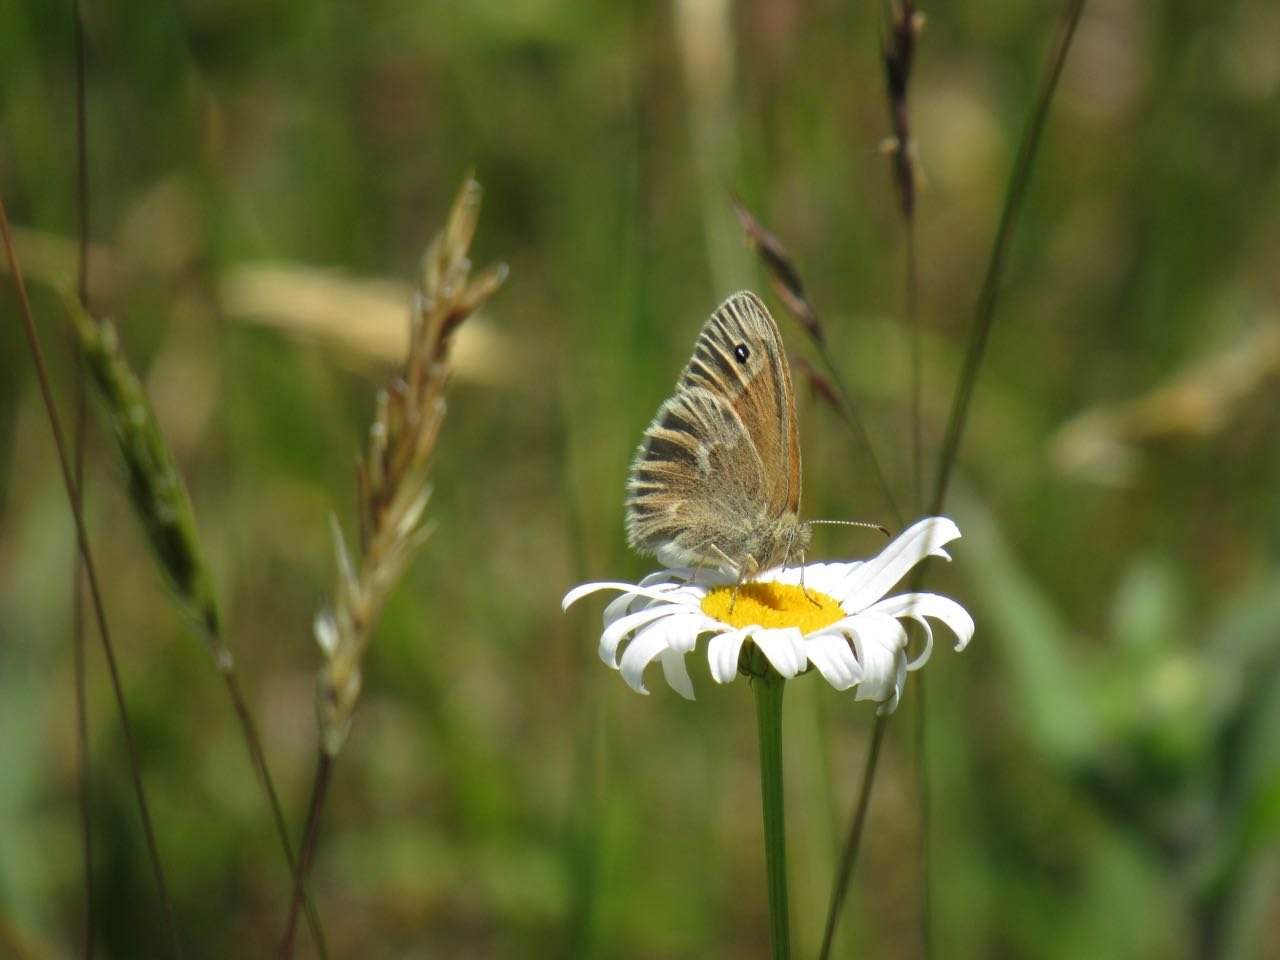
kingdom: Animalia
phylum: Arthropoda
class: Insecta
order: Lepidoptera
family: Nymphalidae
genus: Coenonympha
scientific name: Coenonympha tullia
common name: Large Heath
